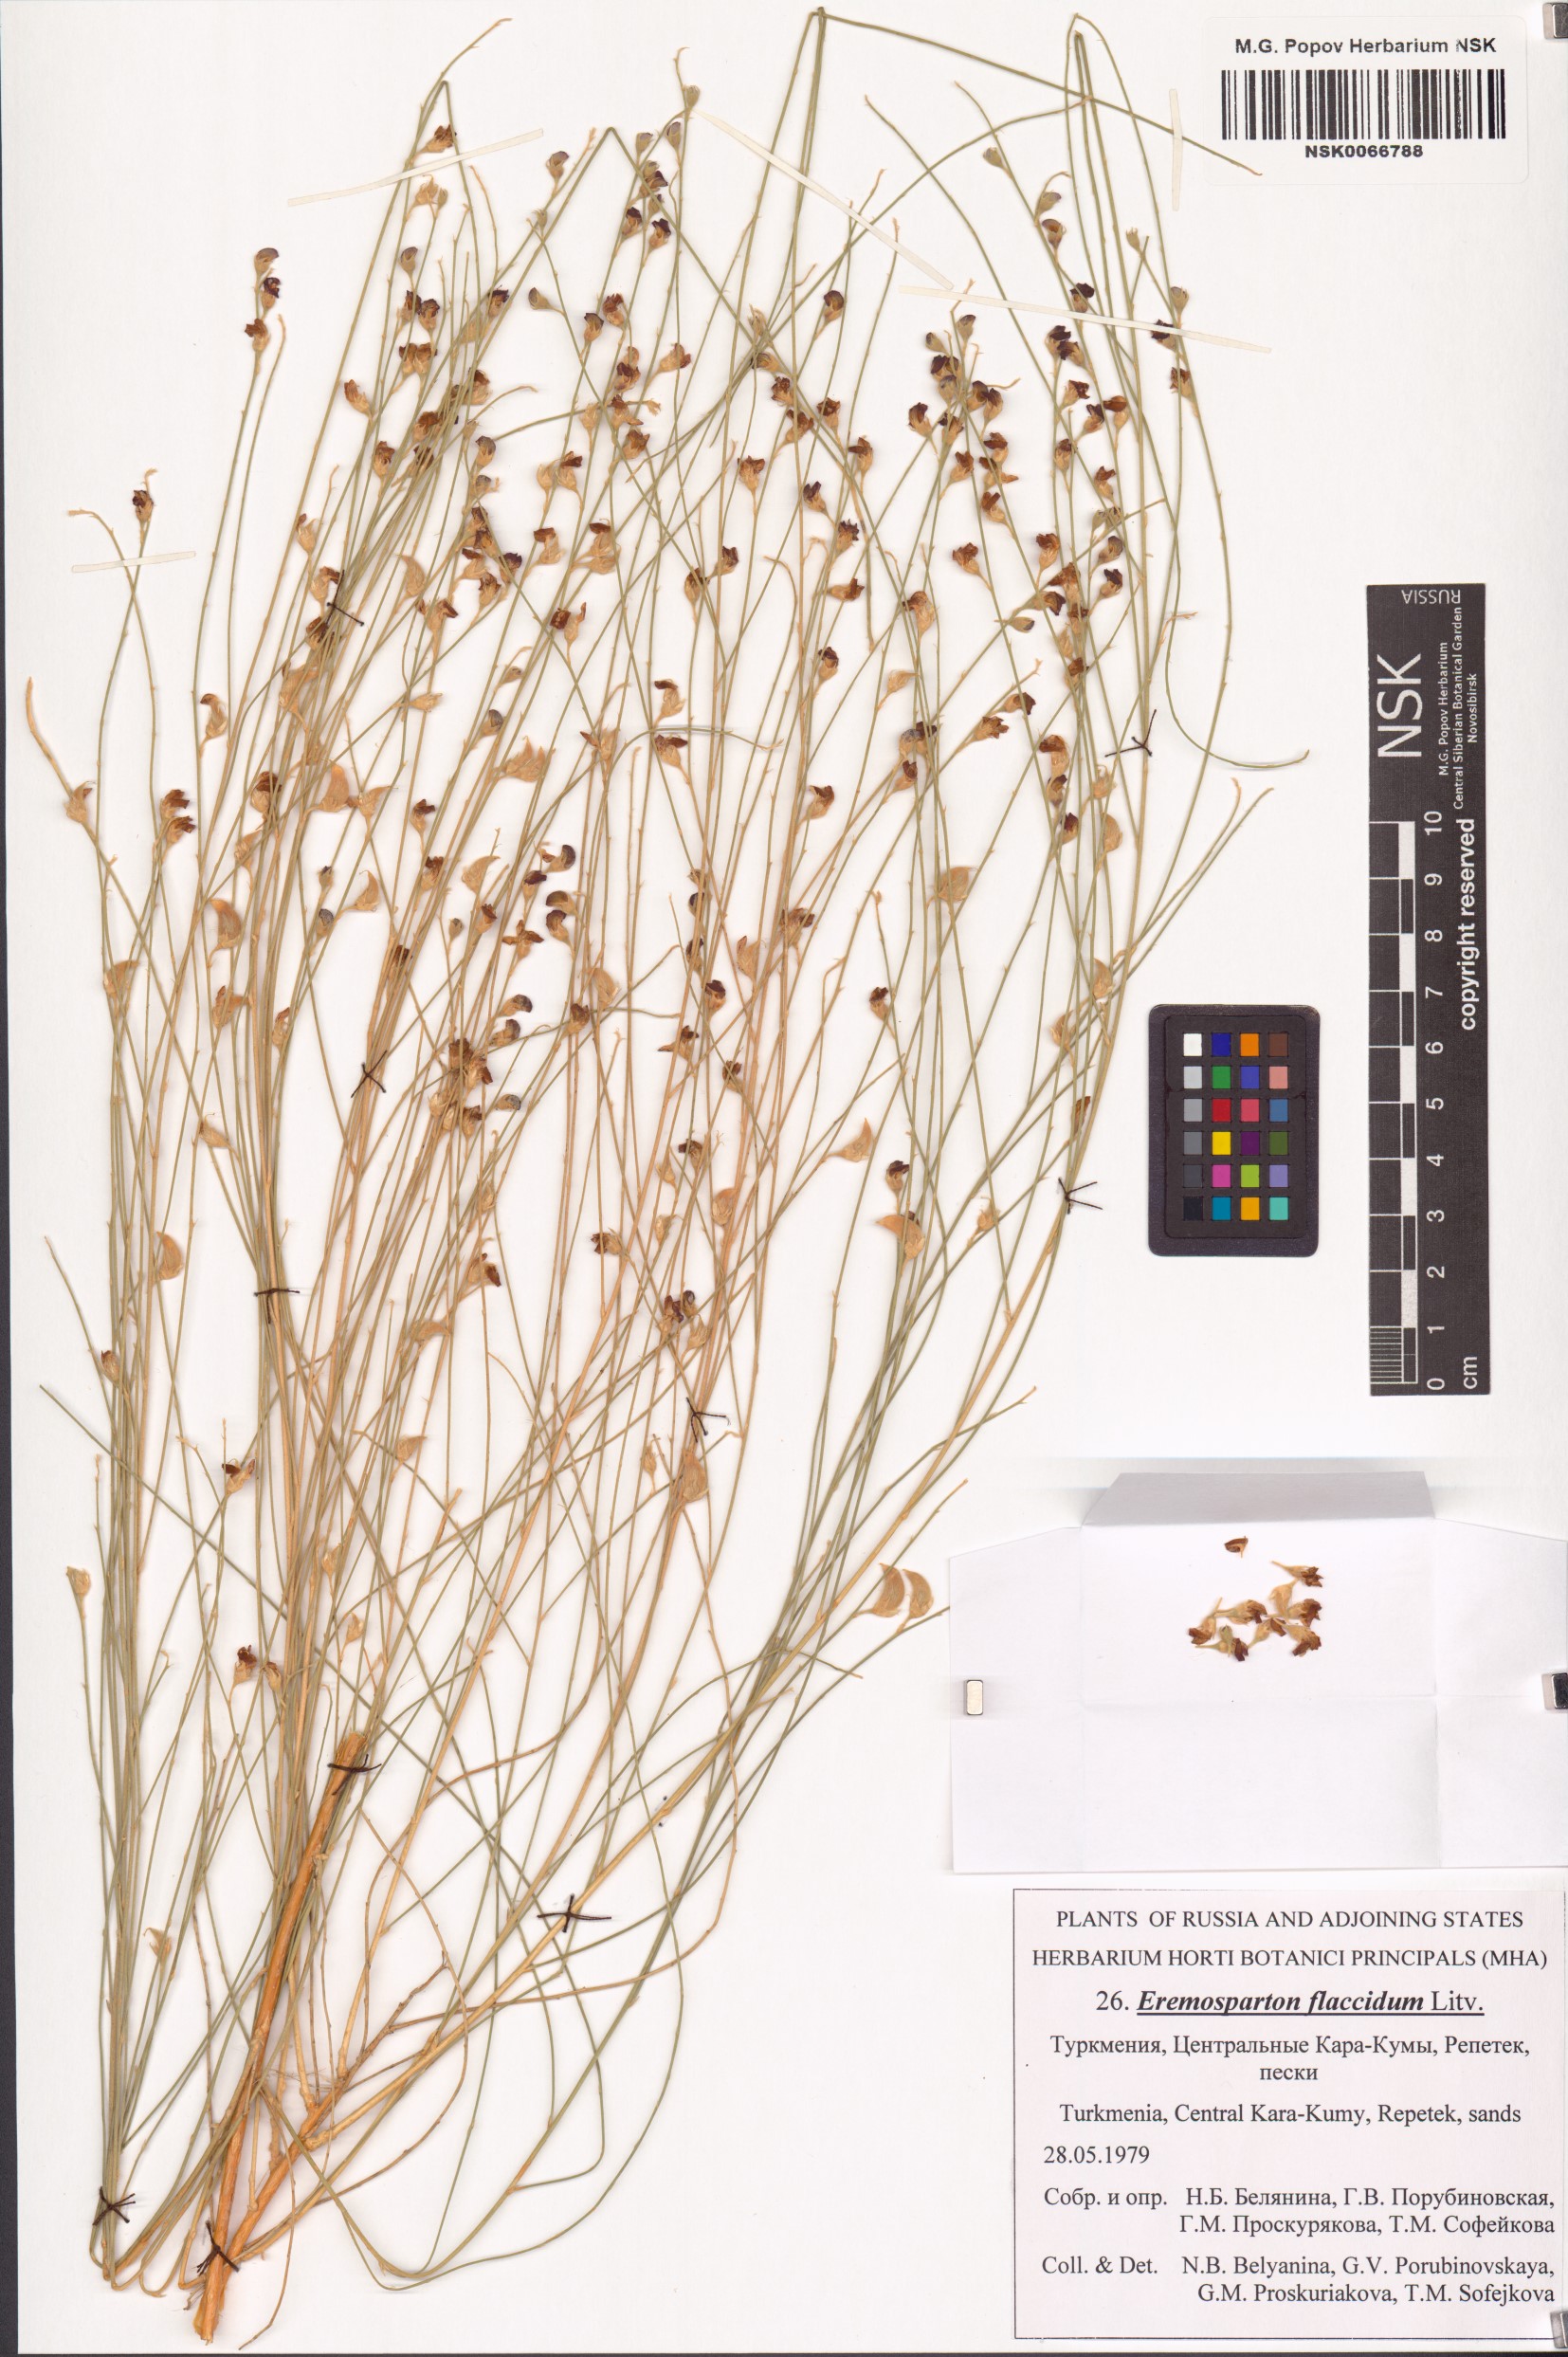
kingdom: Plantae
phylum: Tracheophyta
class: Magnoliopsida
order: Fabales
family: Fabaceae
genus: Eremosparton
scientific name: Eremosparton flaccidum
